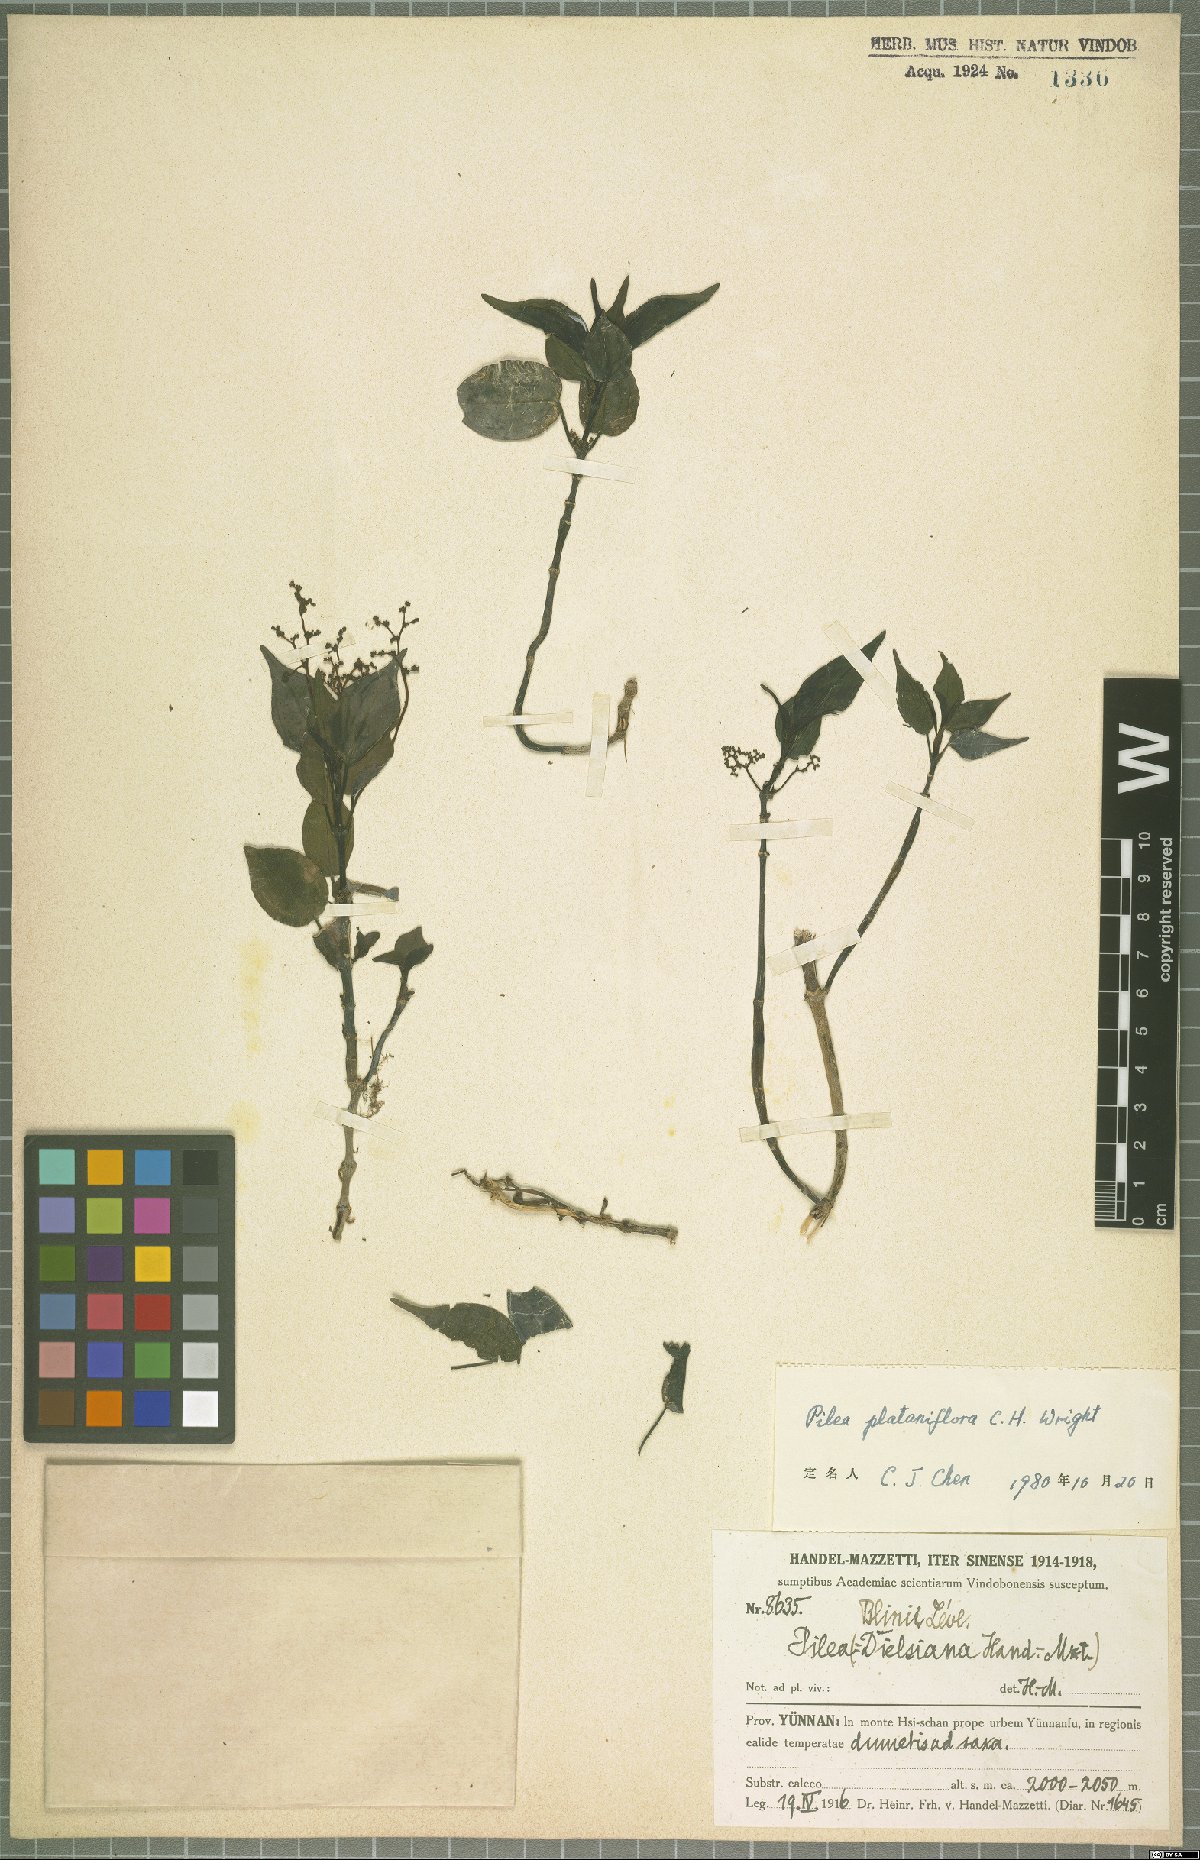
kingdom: Plantae
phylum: Tracheophyta
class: Magnoliopsida
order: Rosales
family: Urticaceae
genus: Pilea
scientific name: Pilea plataniflora
